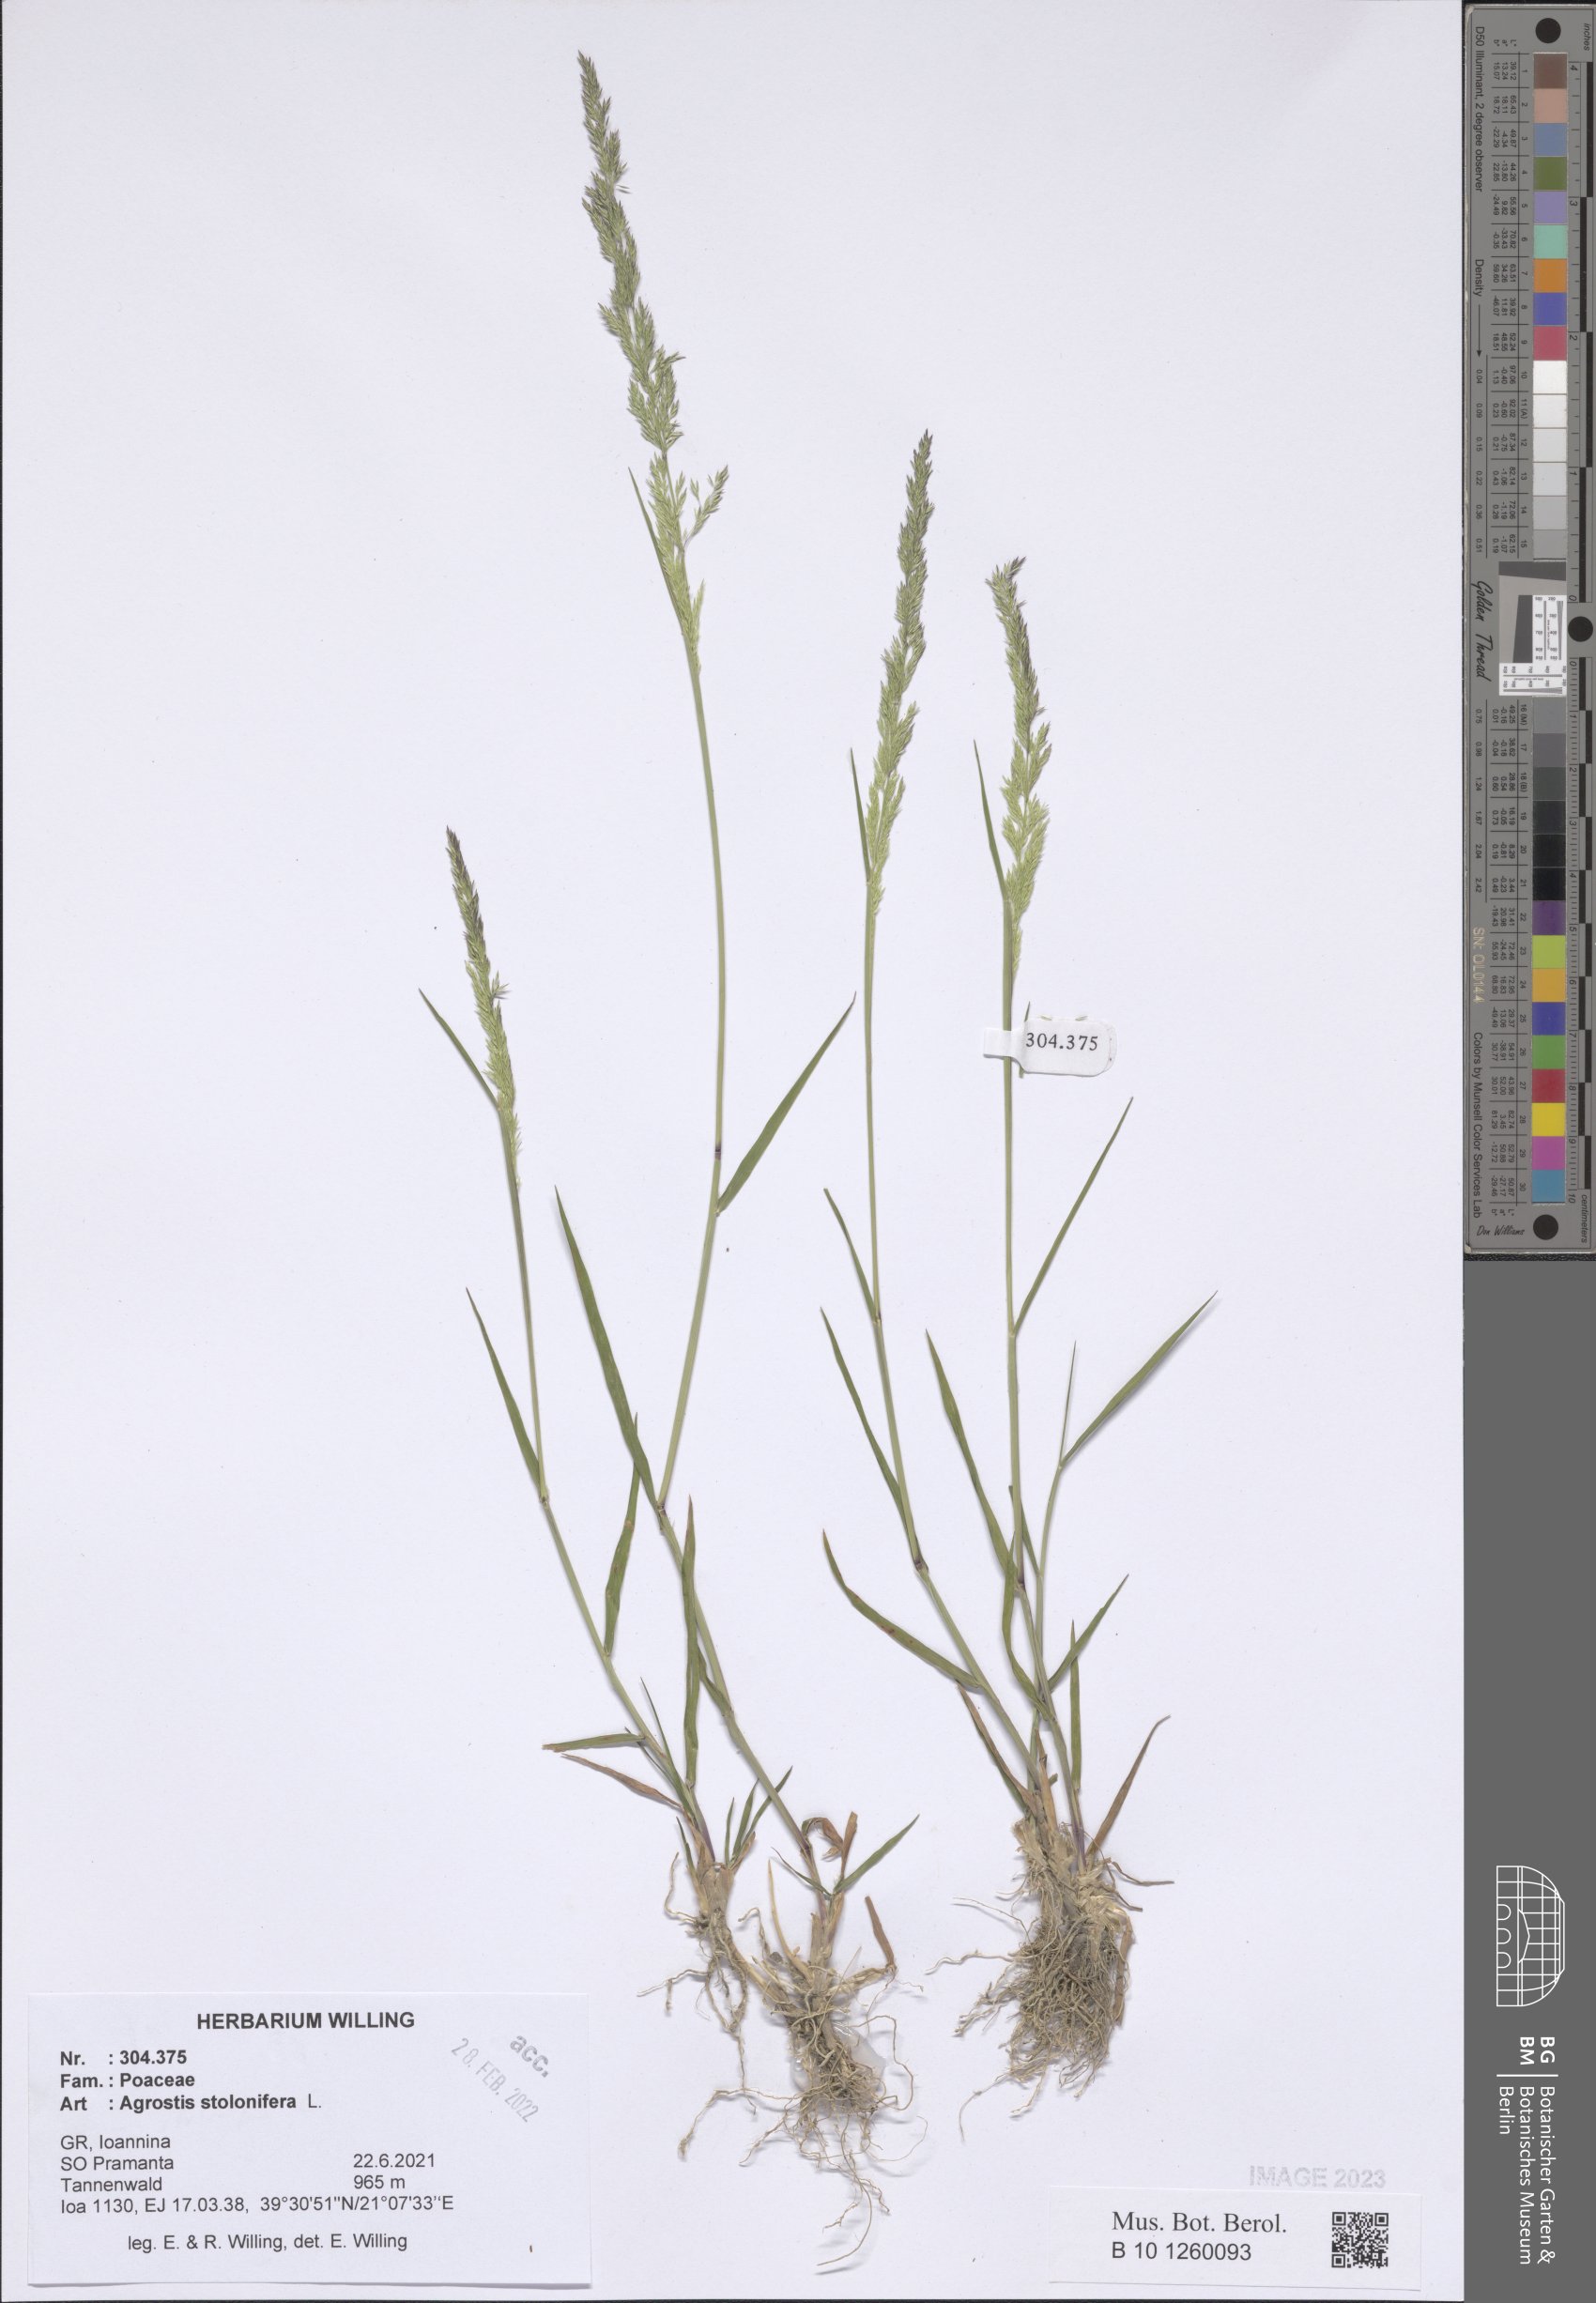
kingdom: Plantae
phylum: Tracheophyta
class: Liliopsida
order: Poales
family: Poaceae
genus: Agrostis
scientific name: Agrostis stolonifera
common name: Creeping bentgrass
